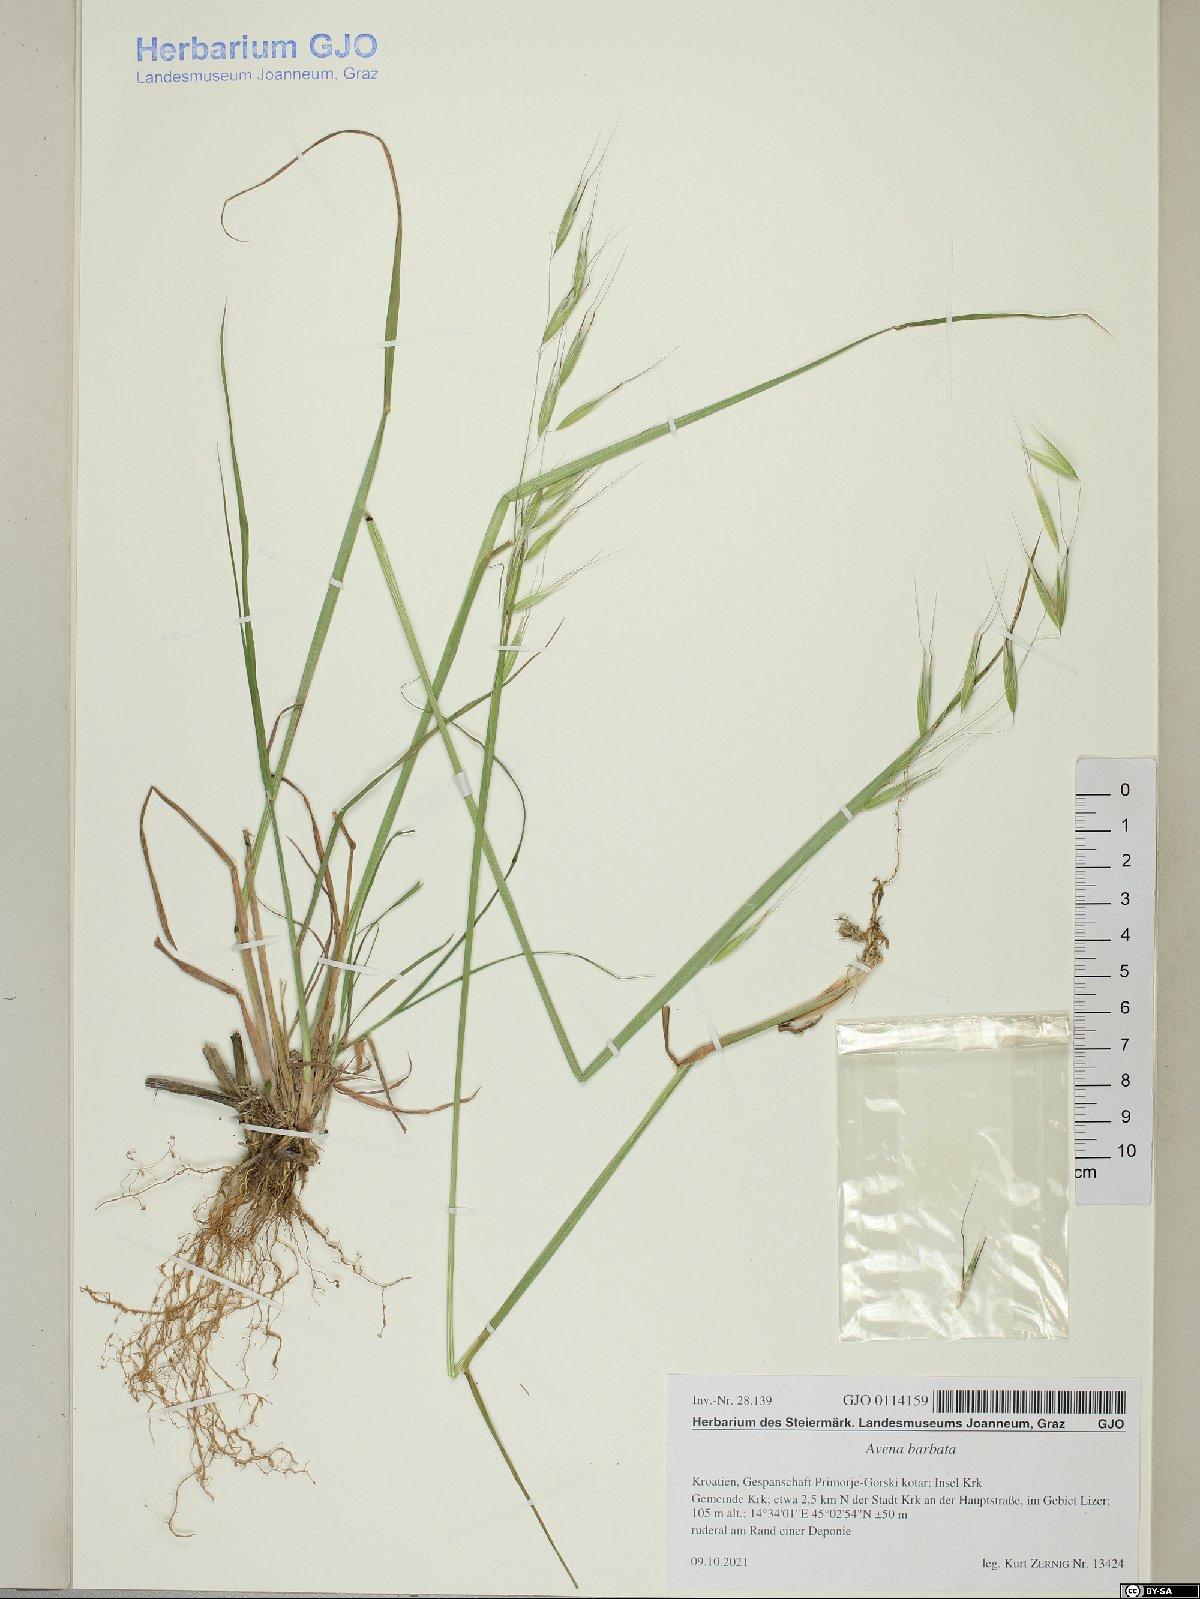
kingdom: Plantae
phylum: Tracheophyta
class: Liliopsida
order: Poales
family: Poaceae
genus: Avena
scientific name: Avena barbata
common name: Slender oat
